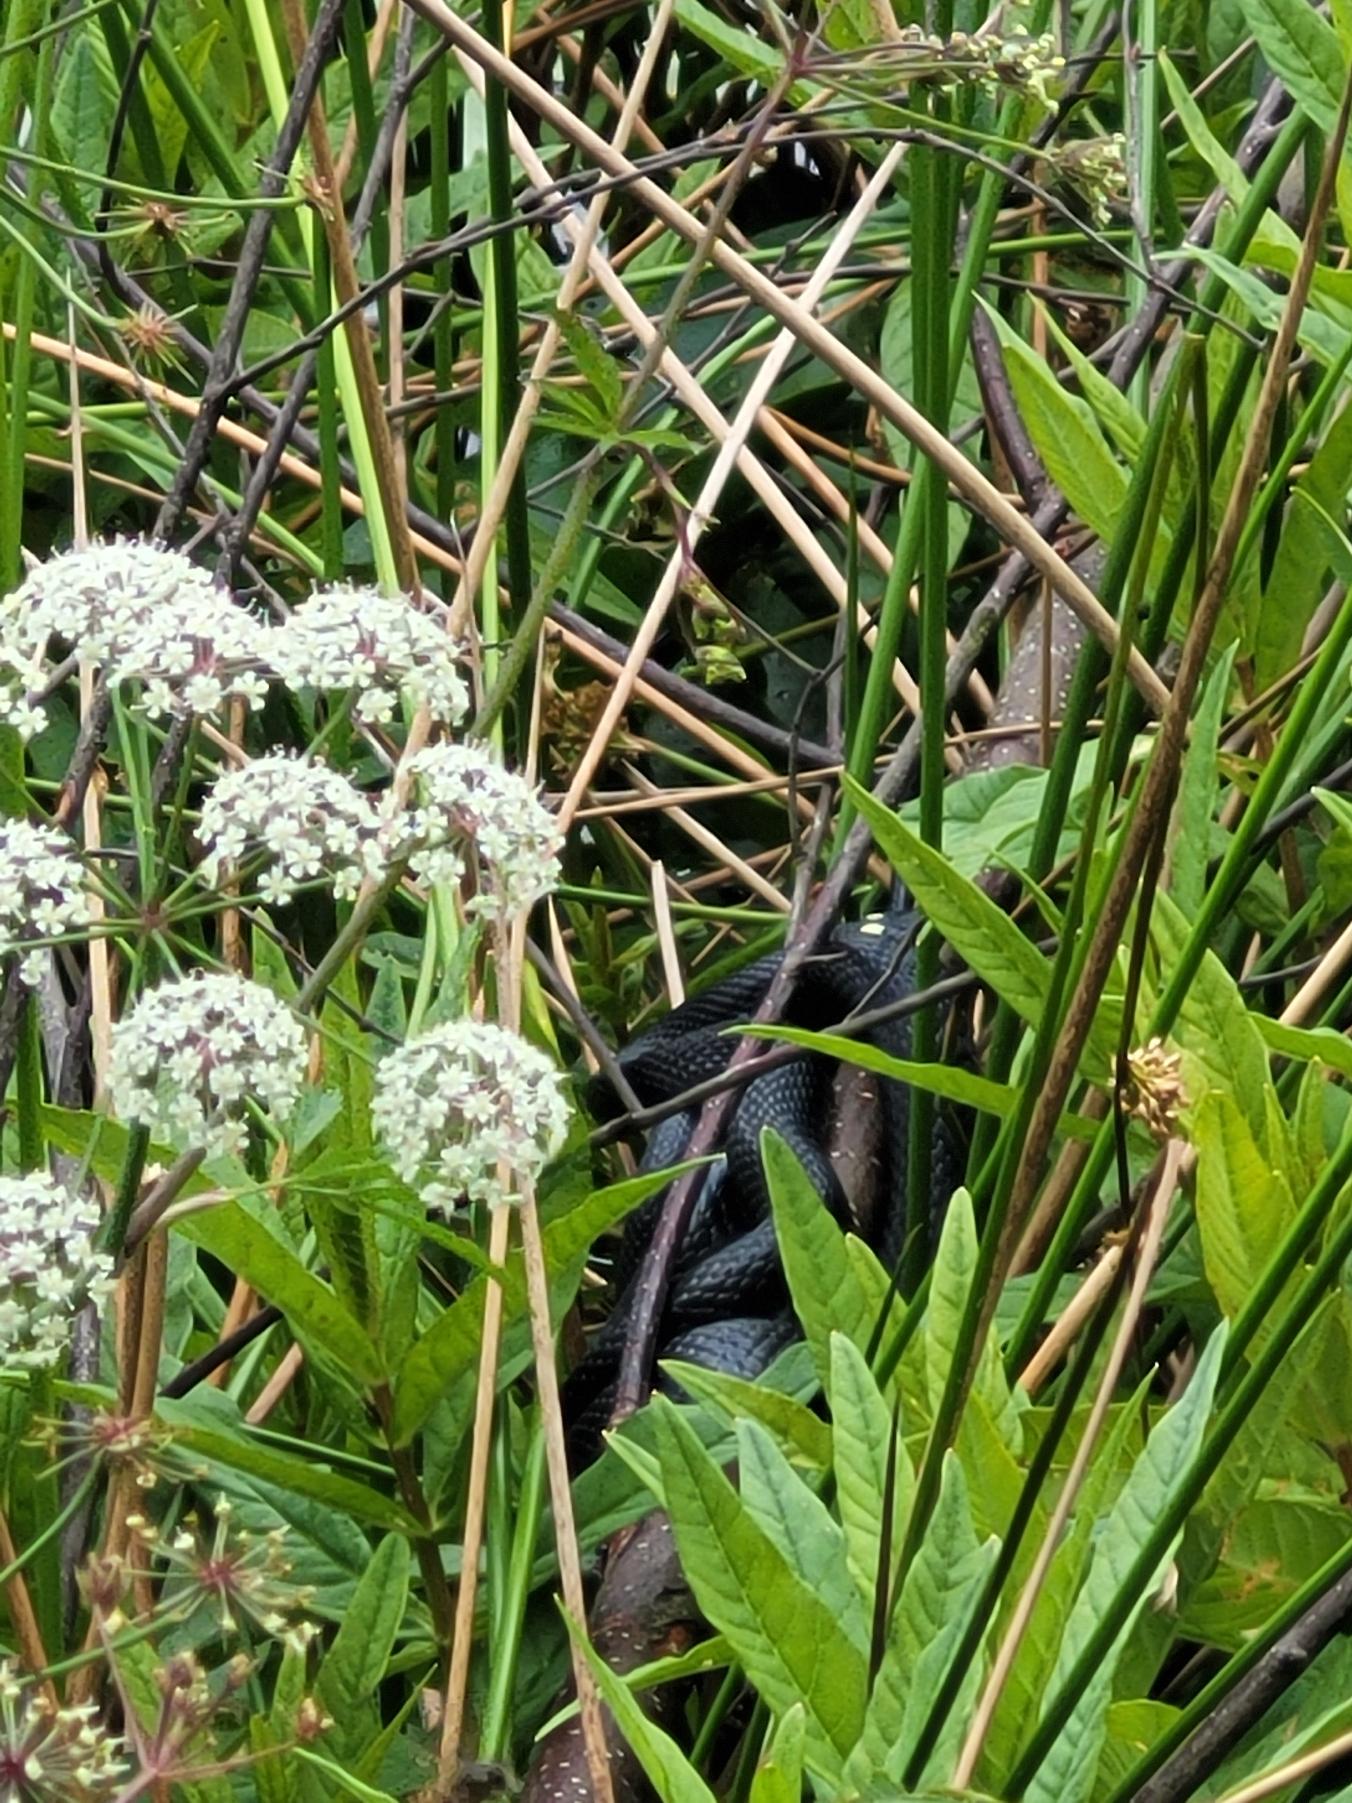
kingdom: Animalia
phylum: Chordata
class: Squamata
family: Colubridae
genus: Natrix
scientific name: Natrix natrix
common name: Snog
